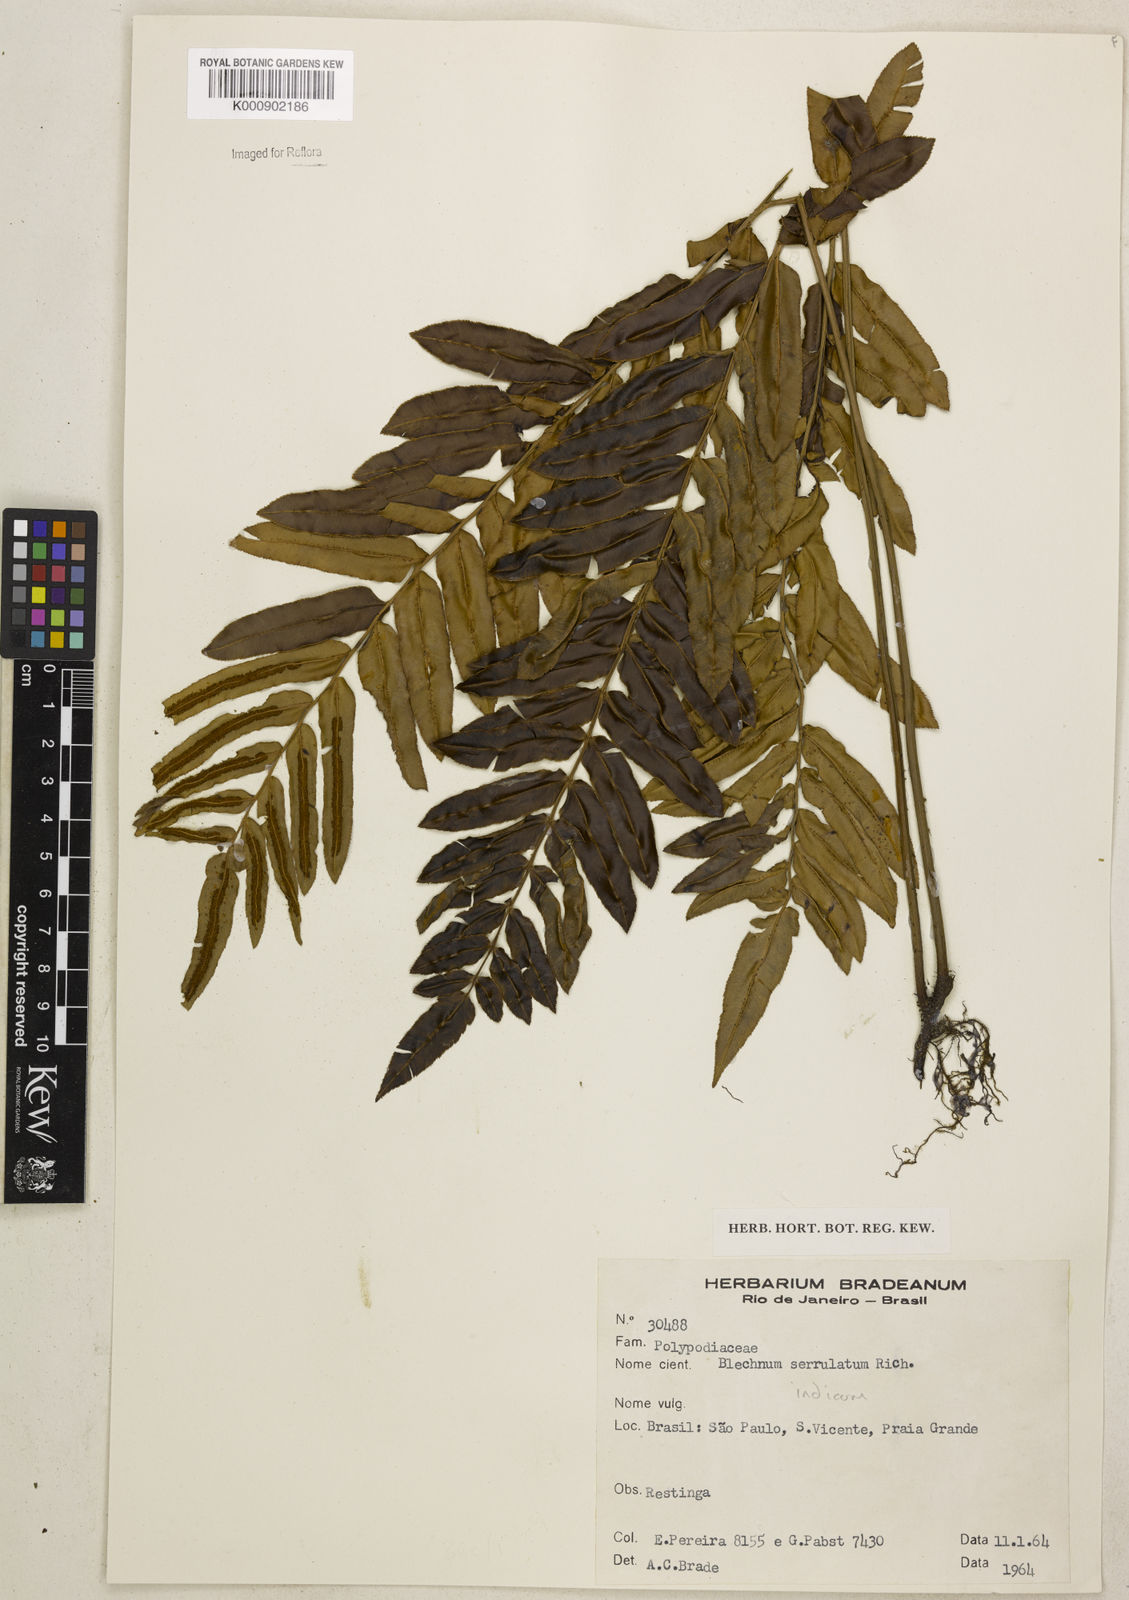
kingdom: Plantae
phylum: Tracheophyta
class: Polypodiopsida
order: Polypodiales
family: Blechnaceae
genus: Telmatoblechnum
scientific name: Telmatoblechnum serrulatum
